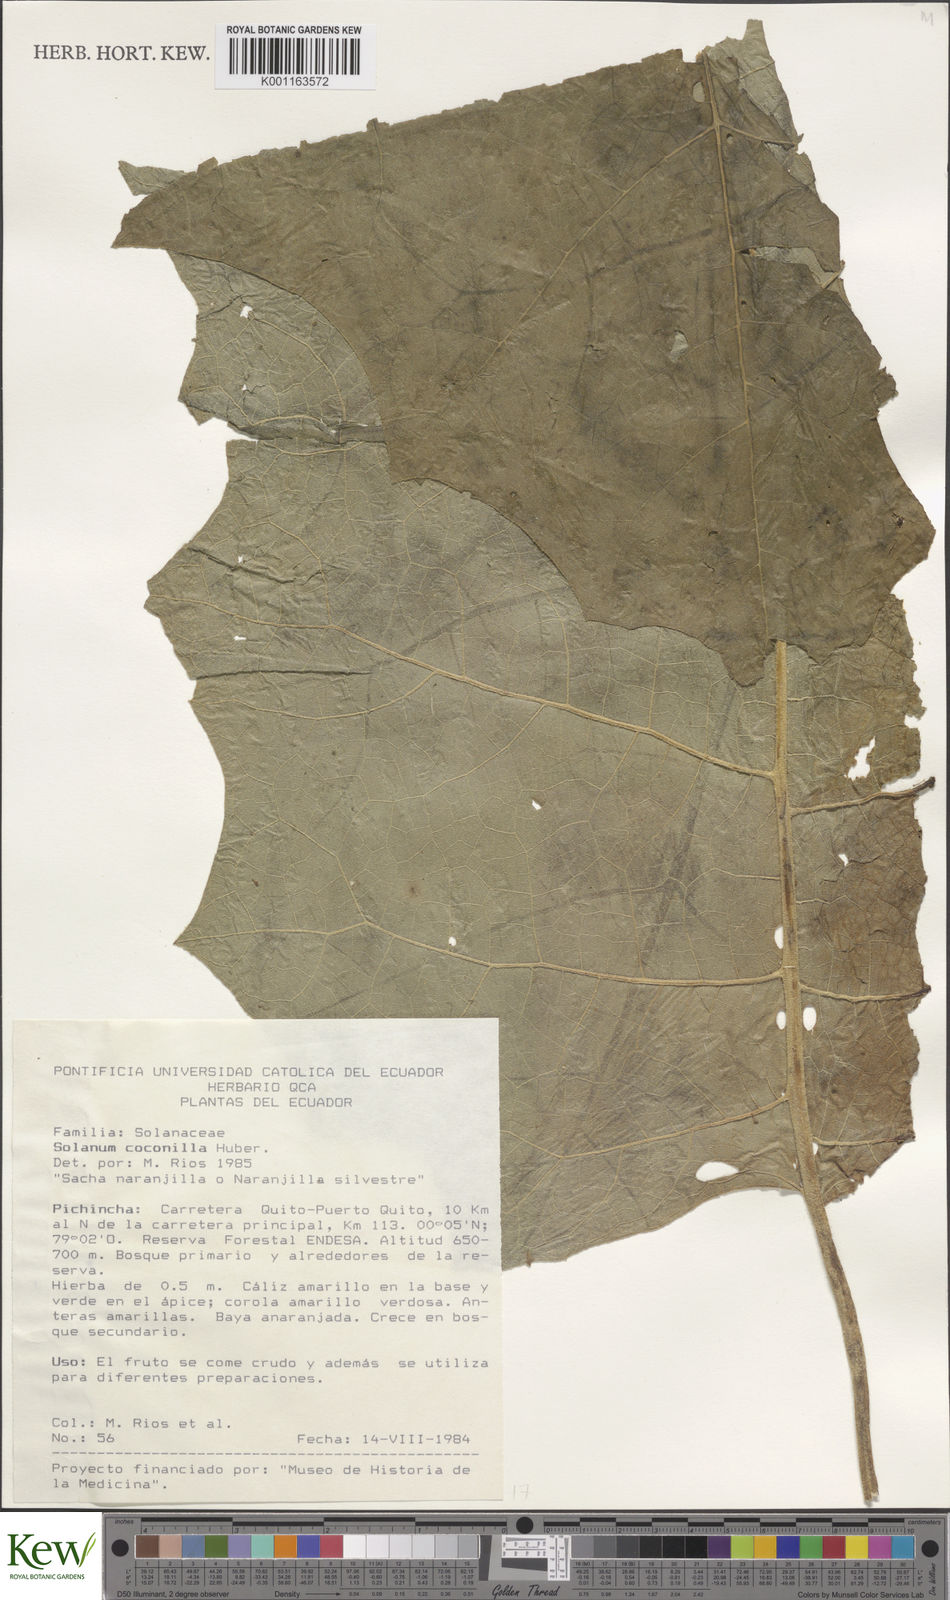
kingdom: Plantae
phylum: Tracheophyta
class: Magnoliopsida
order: Solanales
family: Solanaceae
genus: Solanum
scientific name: Solanum stramonifolium
